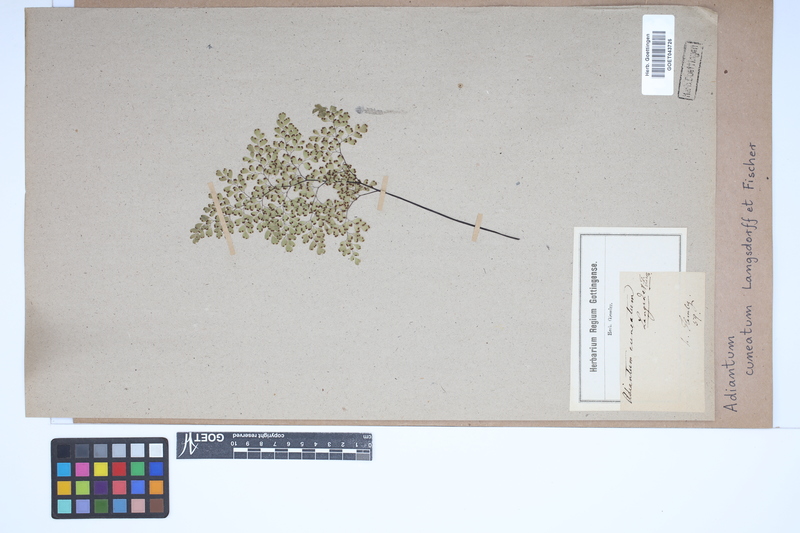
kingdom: Plantae
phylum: Tracheophyta
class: Polypodiopsida
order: Polypodiales
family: Pteridaceae
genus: Adiantum
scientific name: Adiantum raddianum
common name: Delta maidenhair fern
